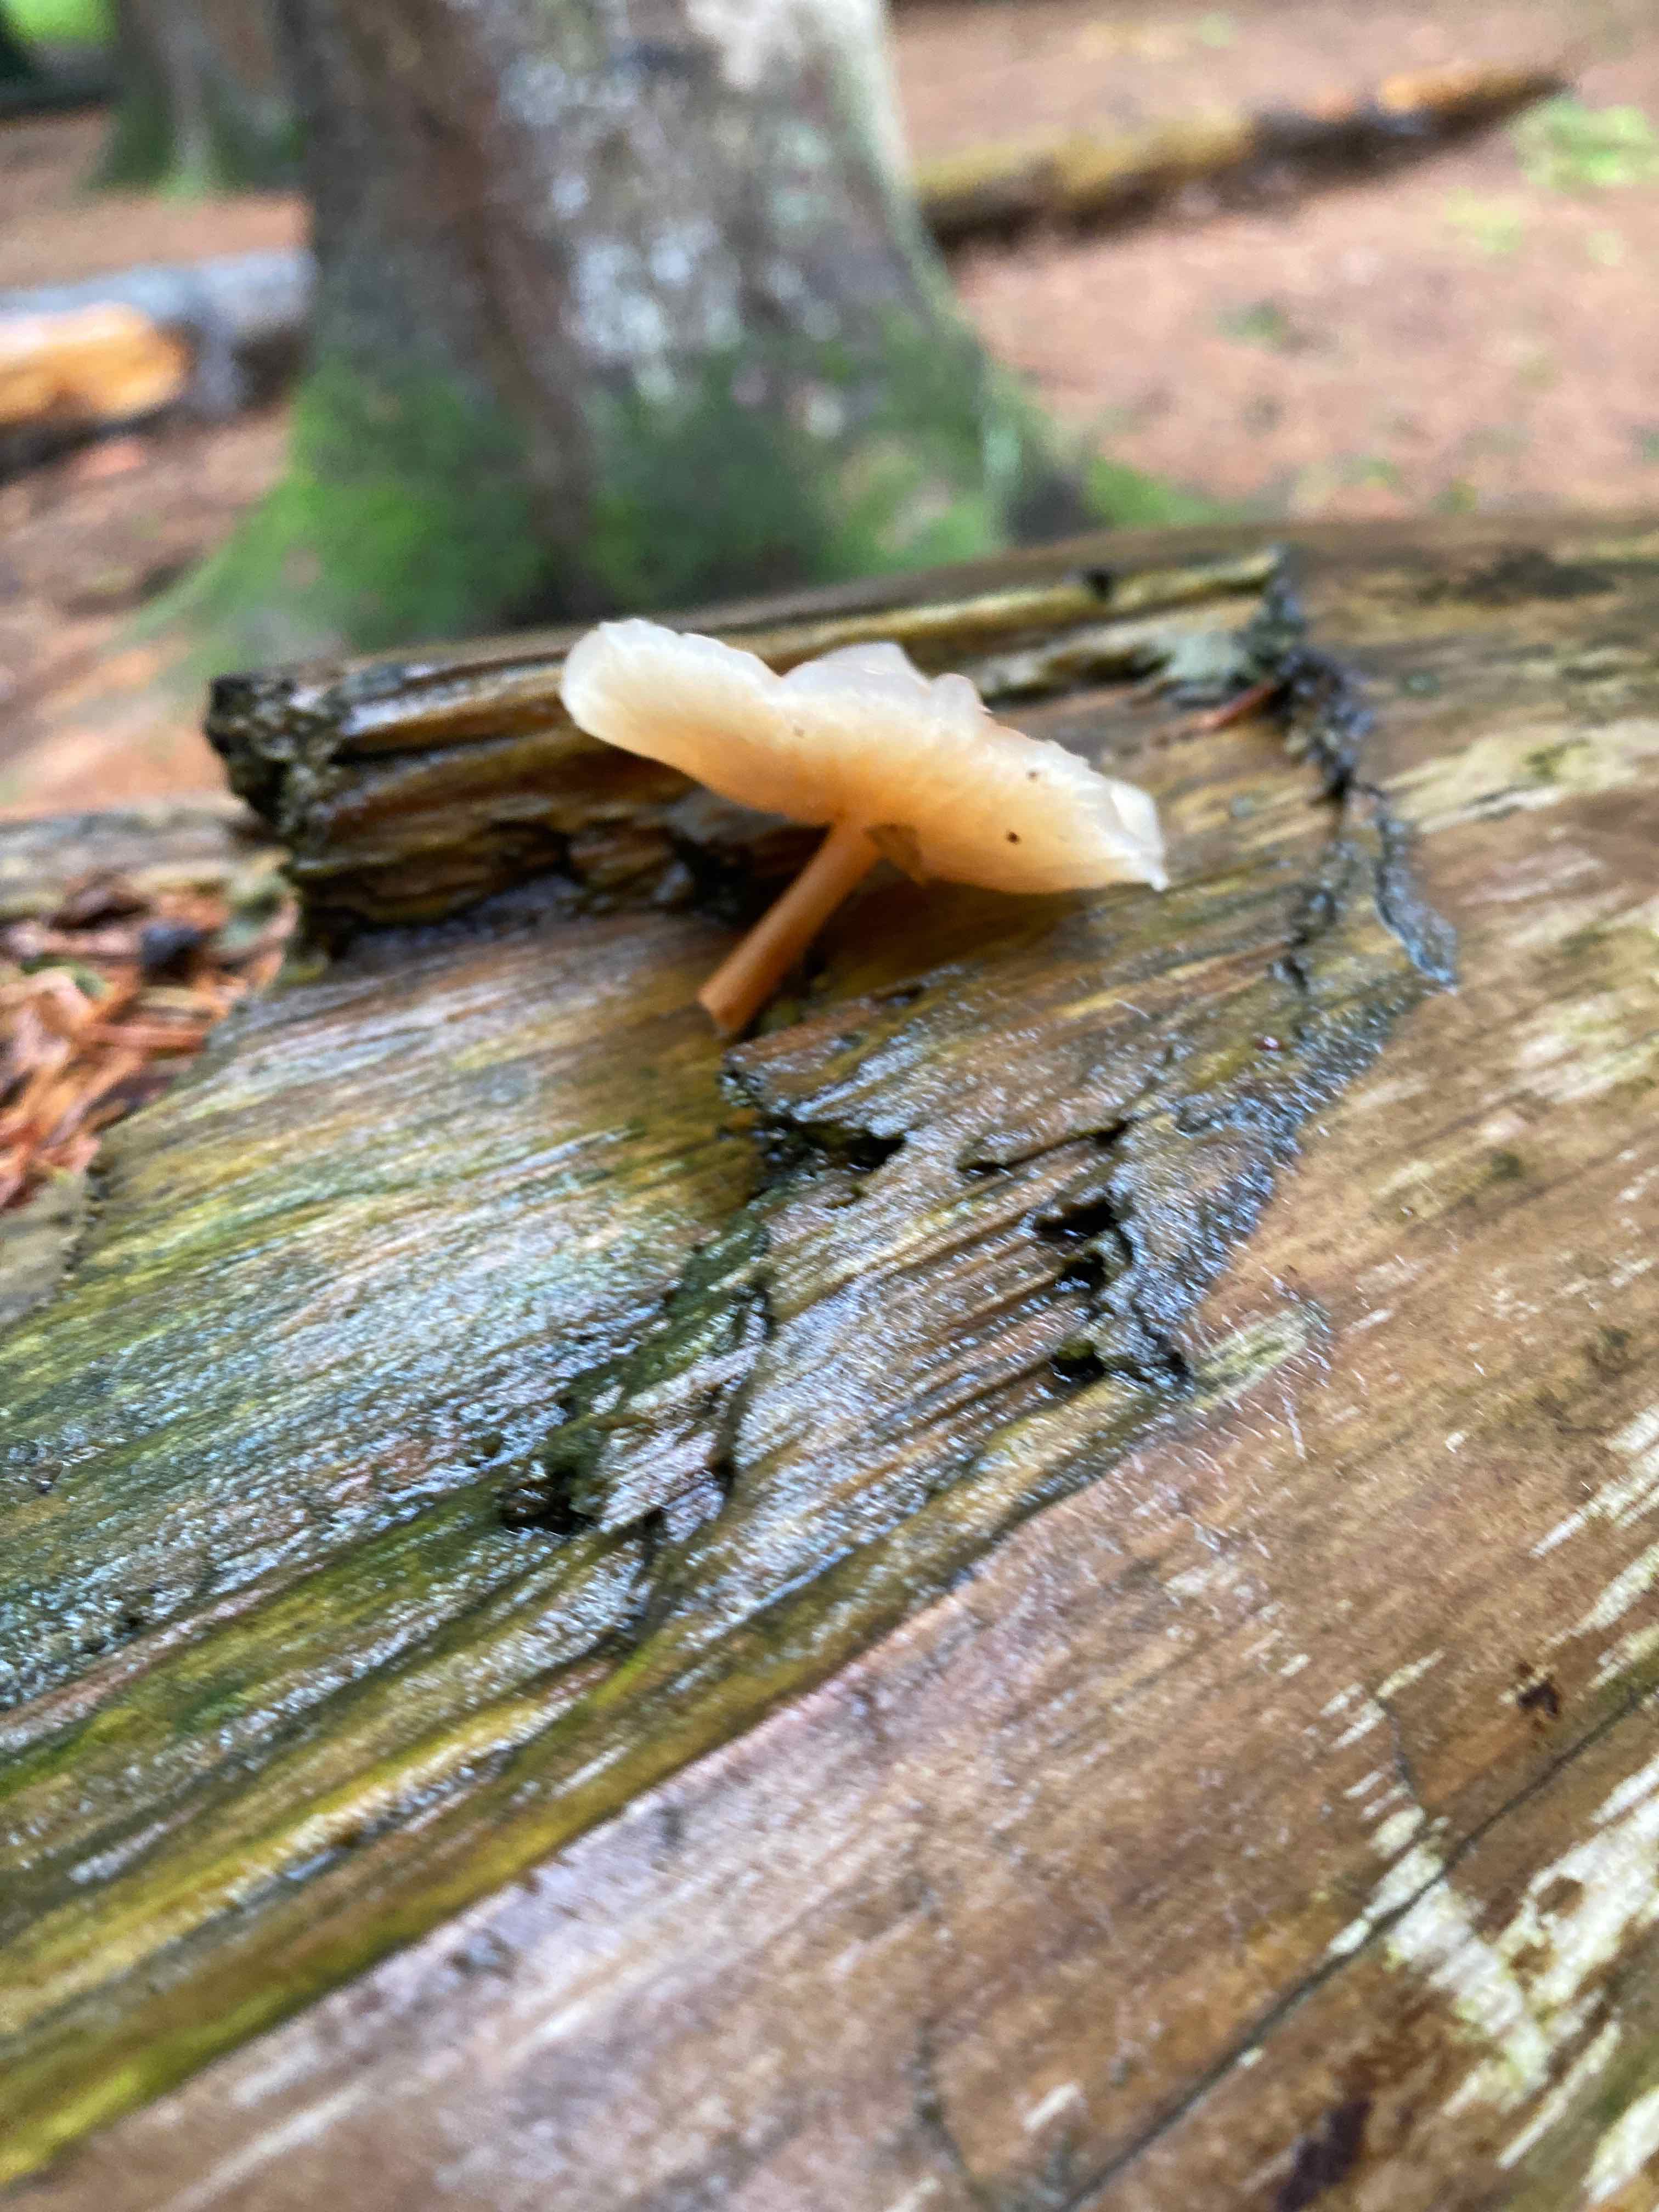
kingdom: Fungi
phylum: Basidiomycota
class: Agaricomycetes
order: Agaricales
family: Omphalotaceae
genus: Gymnopus
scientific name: Gymnopus
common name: fladhat
